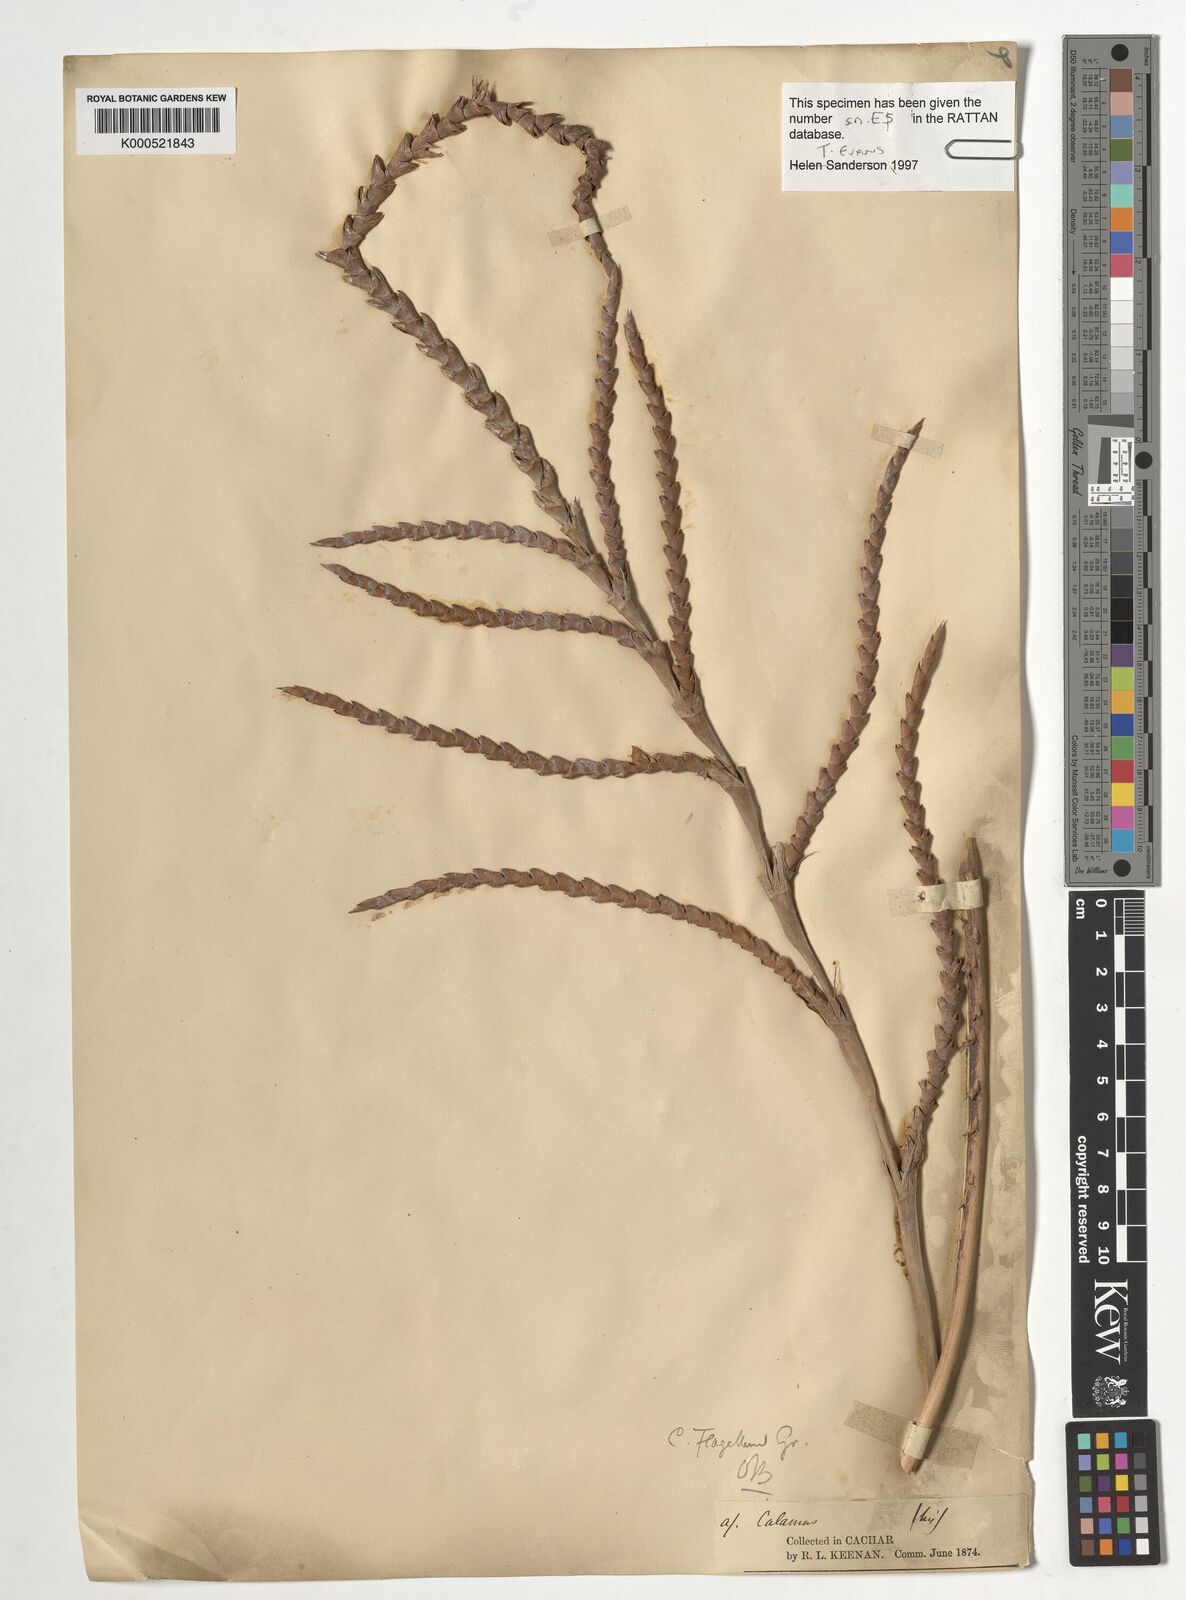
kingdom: Plantae
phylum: Tracheophyta
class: Liliopsida
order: Arecales
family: Arecaceae
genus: Calamus
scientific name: Calamus
